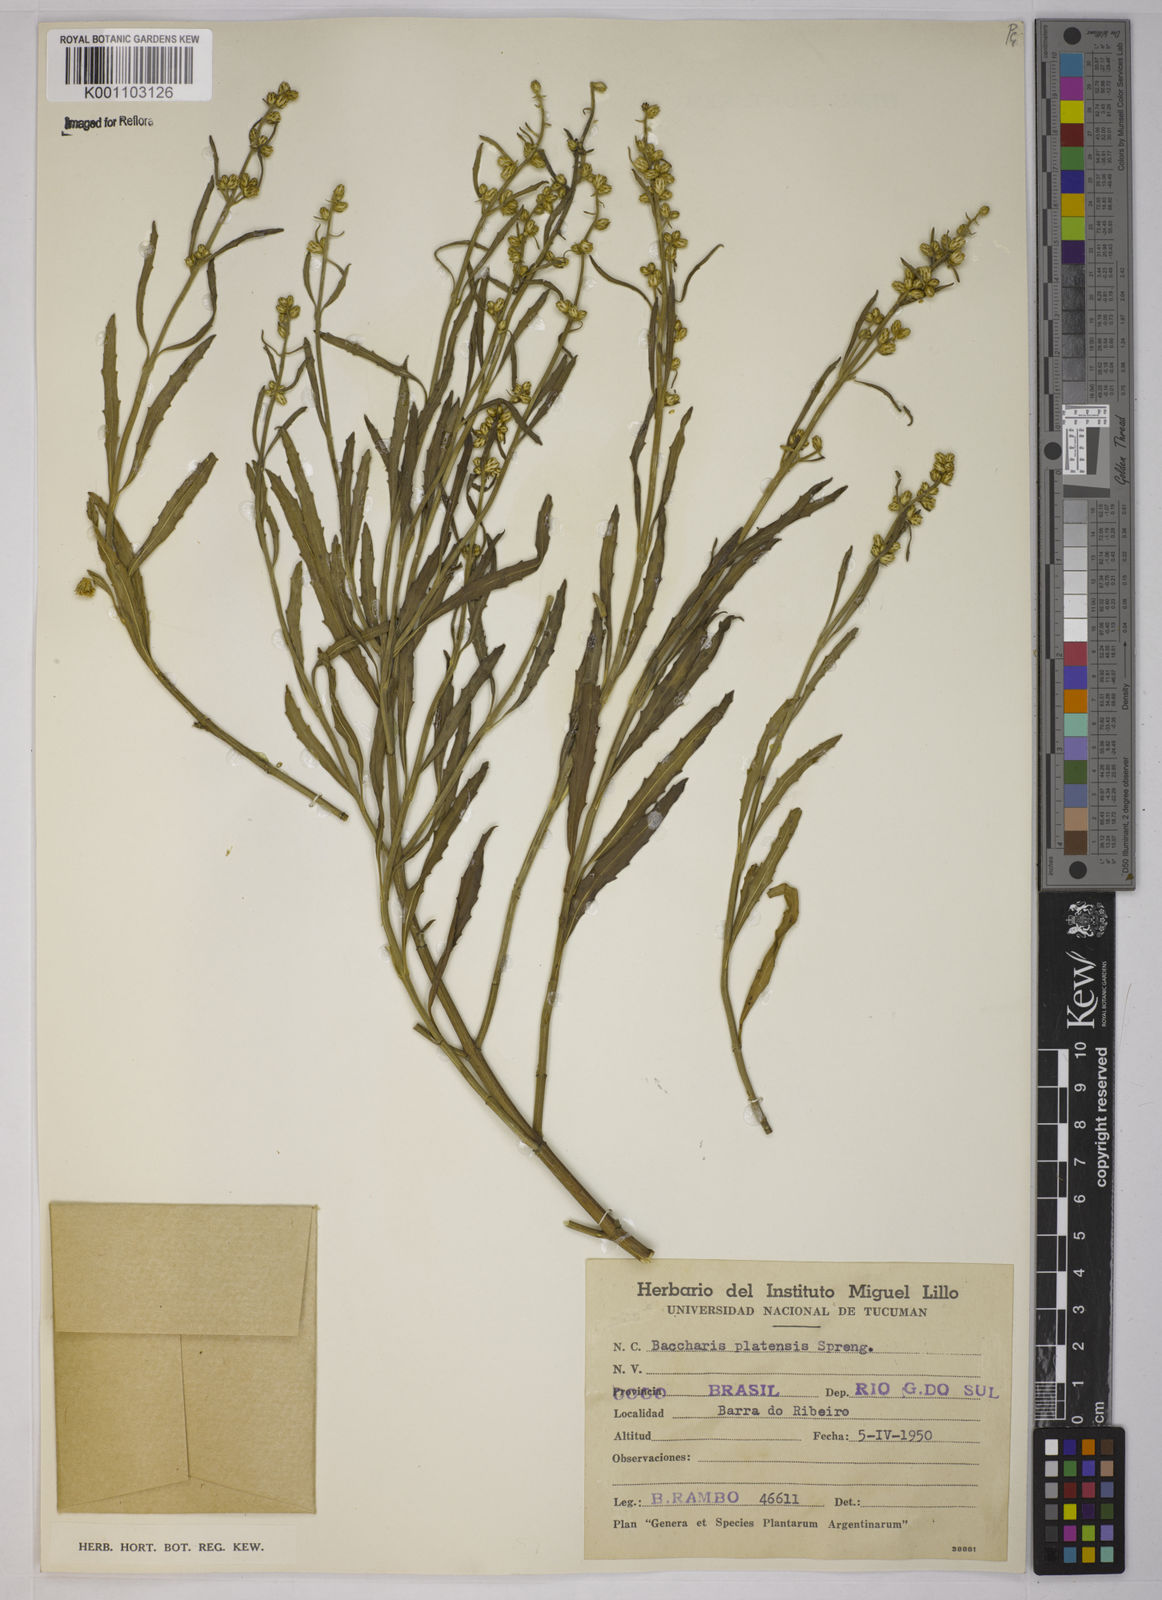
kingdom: Plantae
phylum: Tracheophyta
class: Magnoliopsida
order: Asterales
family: Asteraceae
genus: Baccharis
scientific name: Baccharis hieronymi
